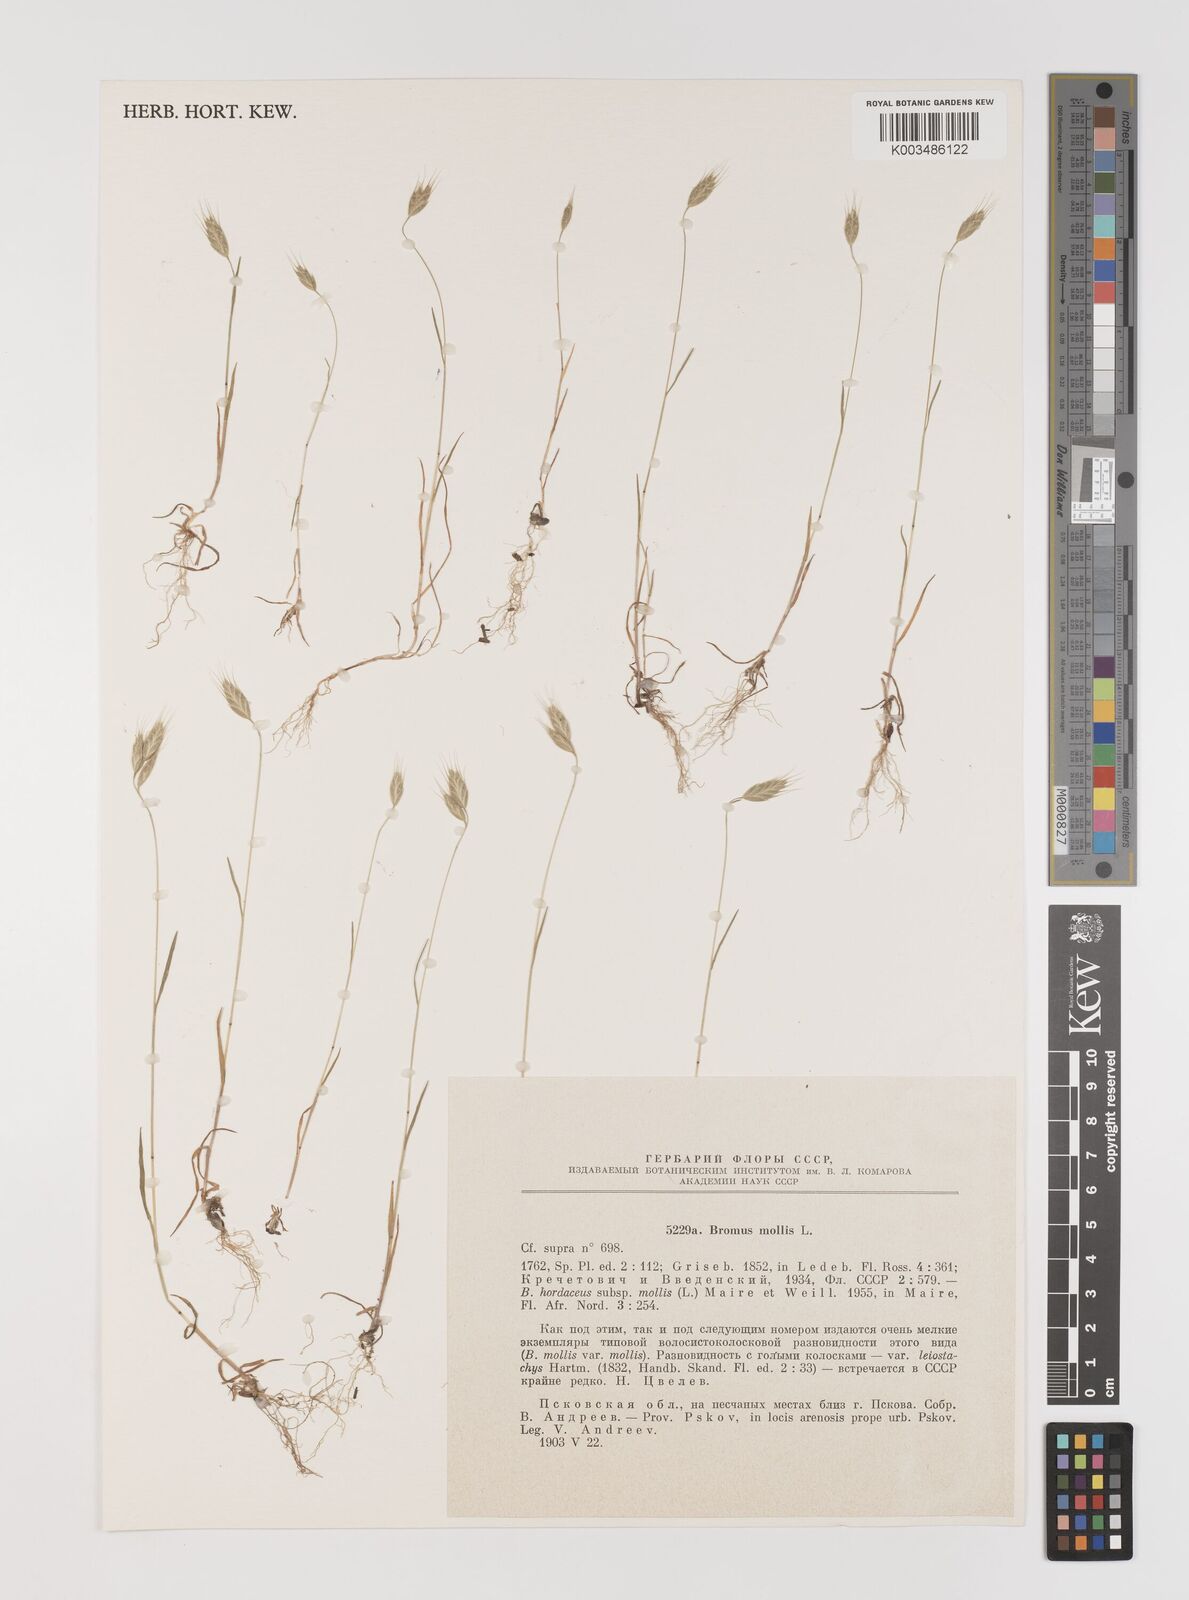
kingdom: Plantae
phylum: Tracheophyta
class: Liliopsida
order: Poales
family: Poaceae
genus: Bromus
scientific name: Bromus hordeaceus
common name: Soft brome
